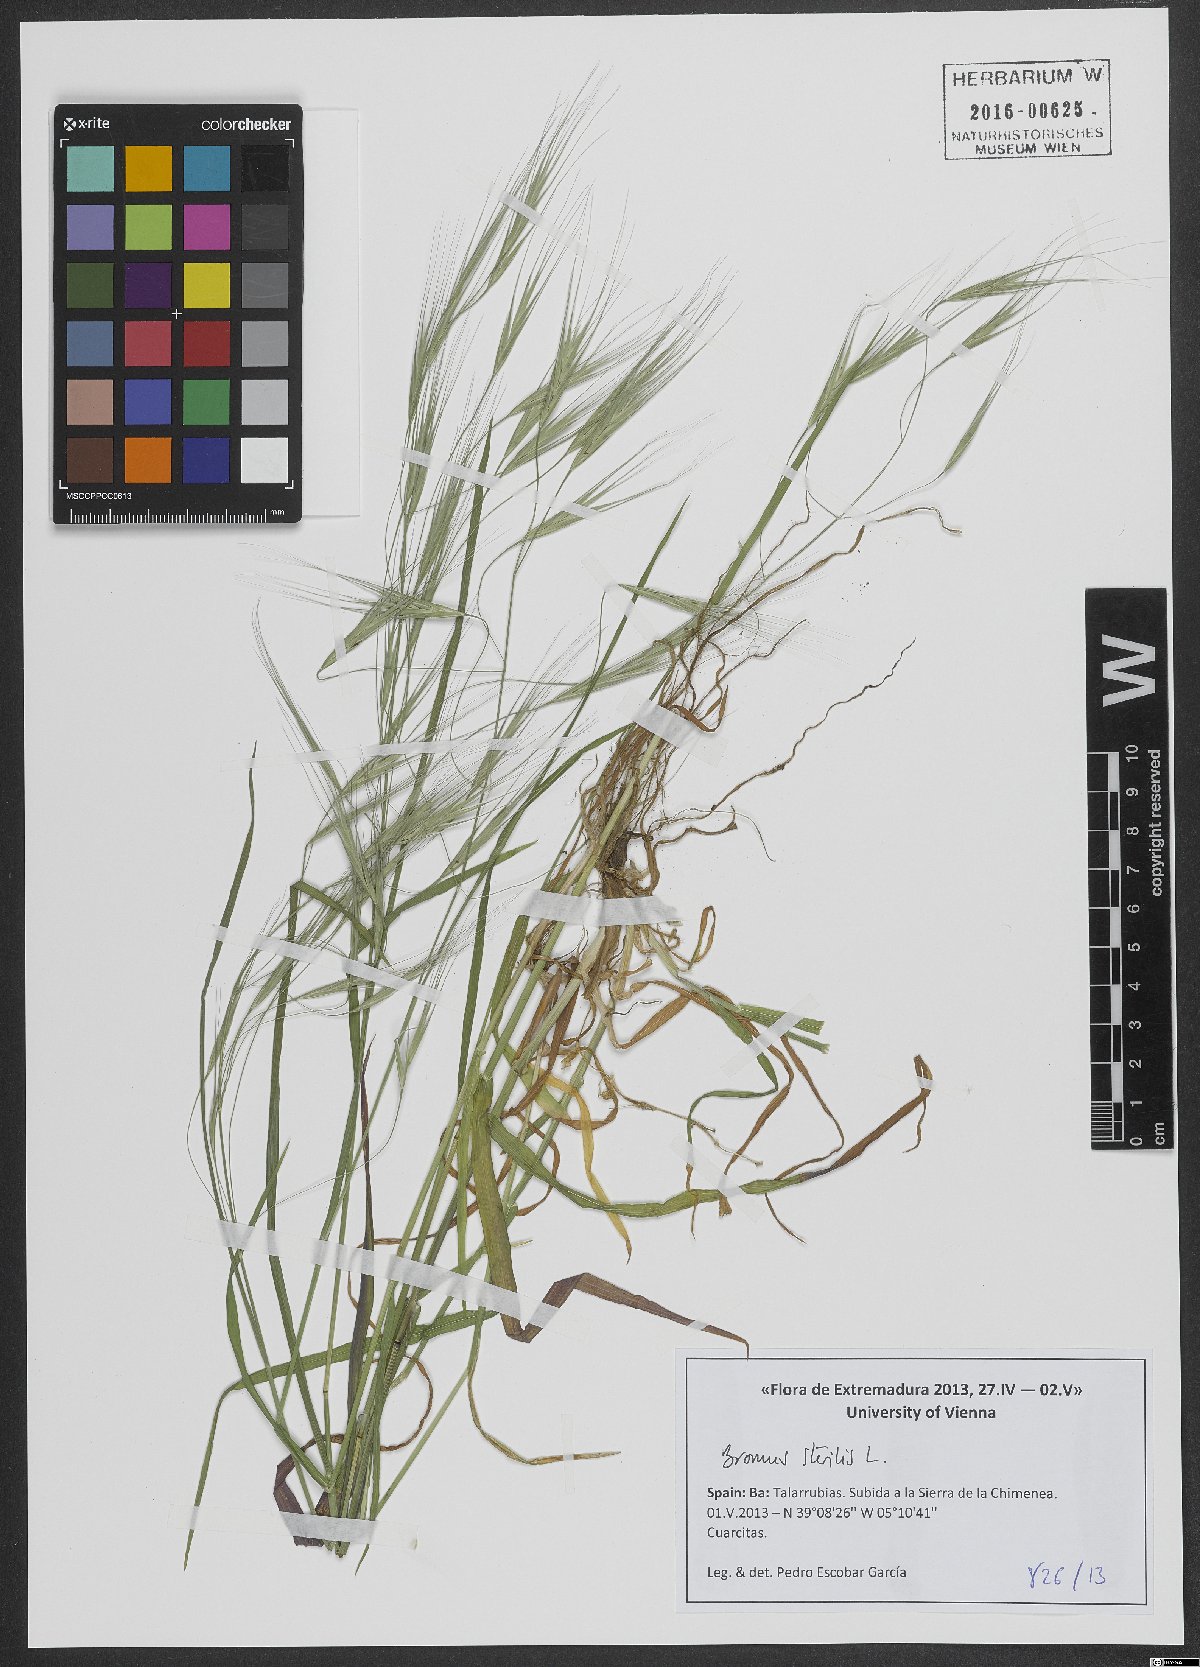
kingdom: Plantae
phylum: Tracheophyta
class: Liliopsida
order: Poales
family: Poaceae
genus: Bromus
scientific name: Bromus sterilis
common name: Poverty brome
